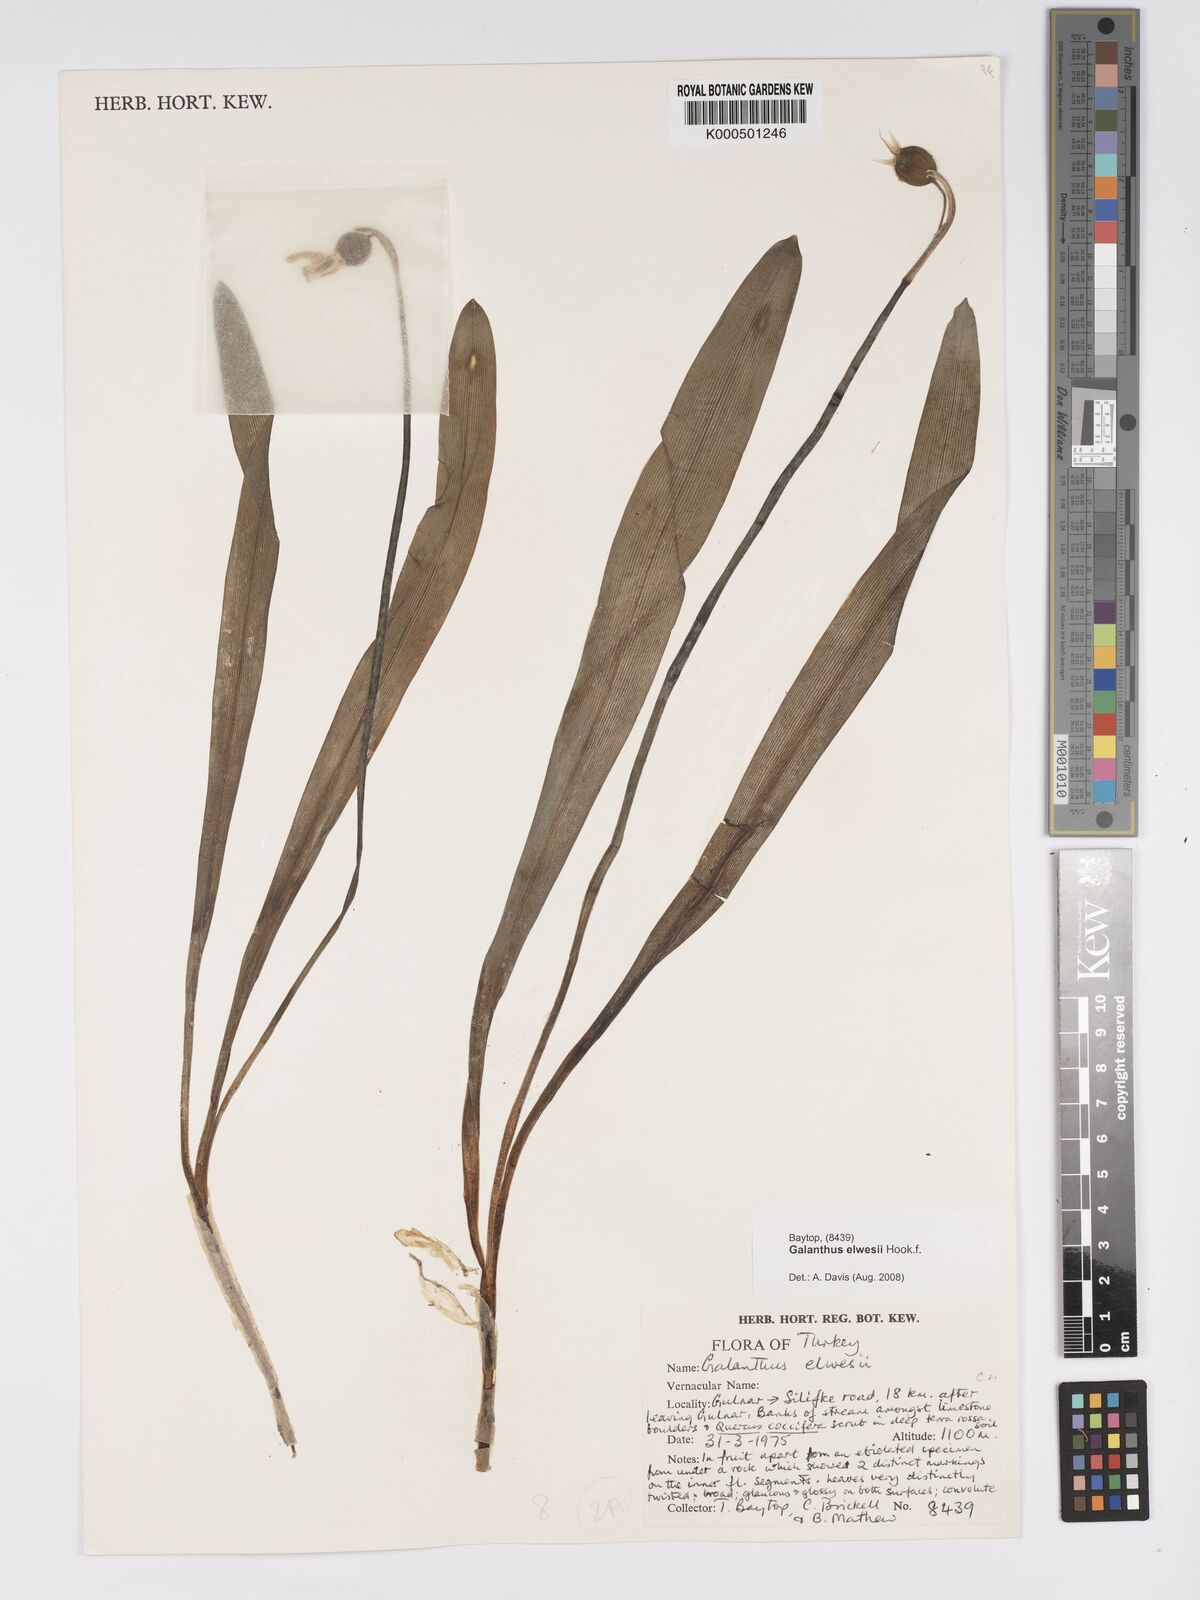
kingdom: Plantae
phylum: Tracheophyta
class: Liliopsida
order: Asparagales
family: Amaryllidaceae
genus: Galanthus
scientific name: Galanthus elwesii
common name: Greater snowdrop
